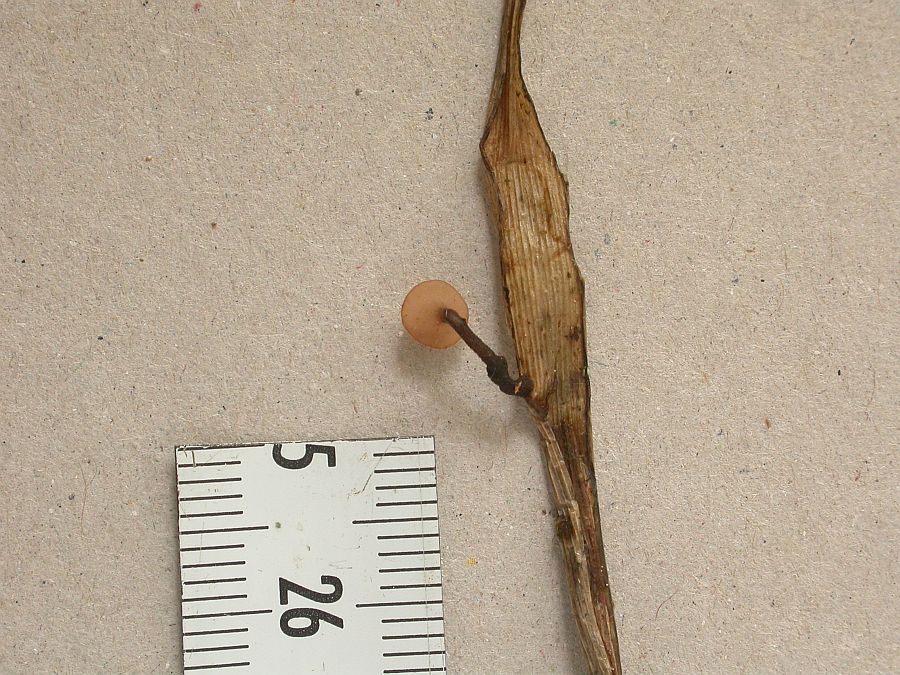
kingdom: Fungi
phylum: Ascomycota
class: Leotiomycetes
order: Helotiales
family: Sclerotiniaceae
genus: Myriosclerotinia
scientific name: Myriosclerotinia scirpicola
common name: kogleaks-knoldskive
